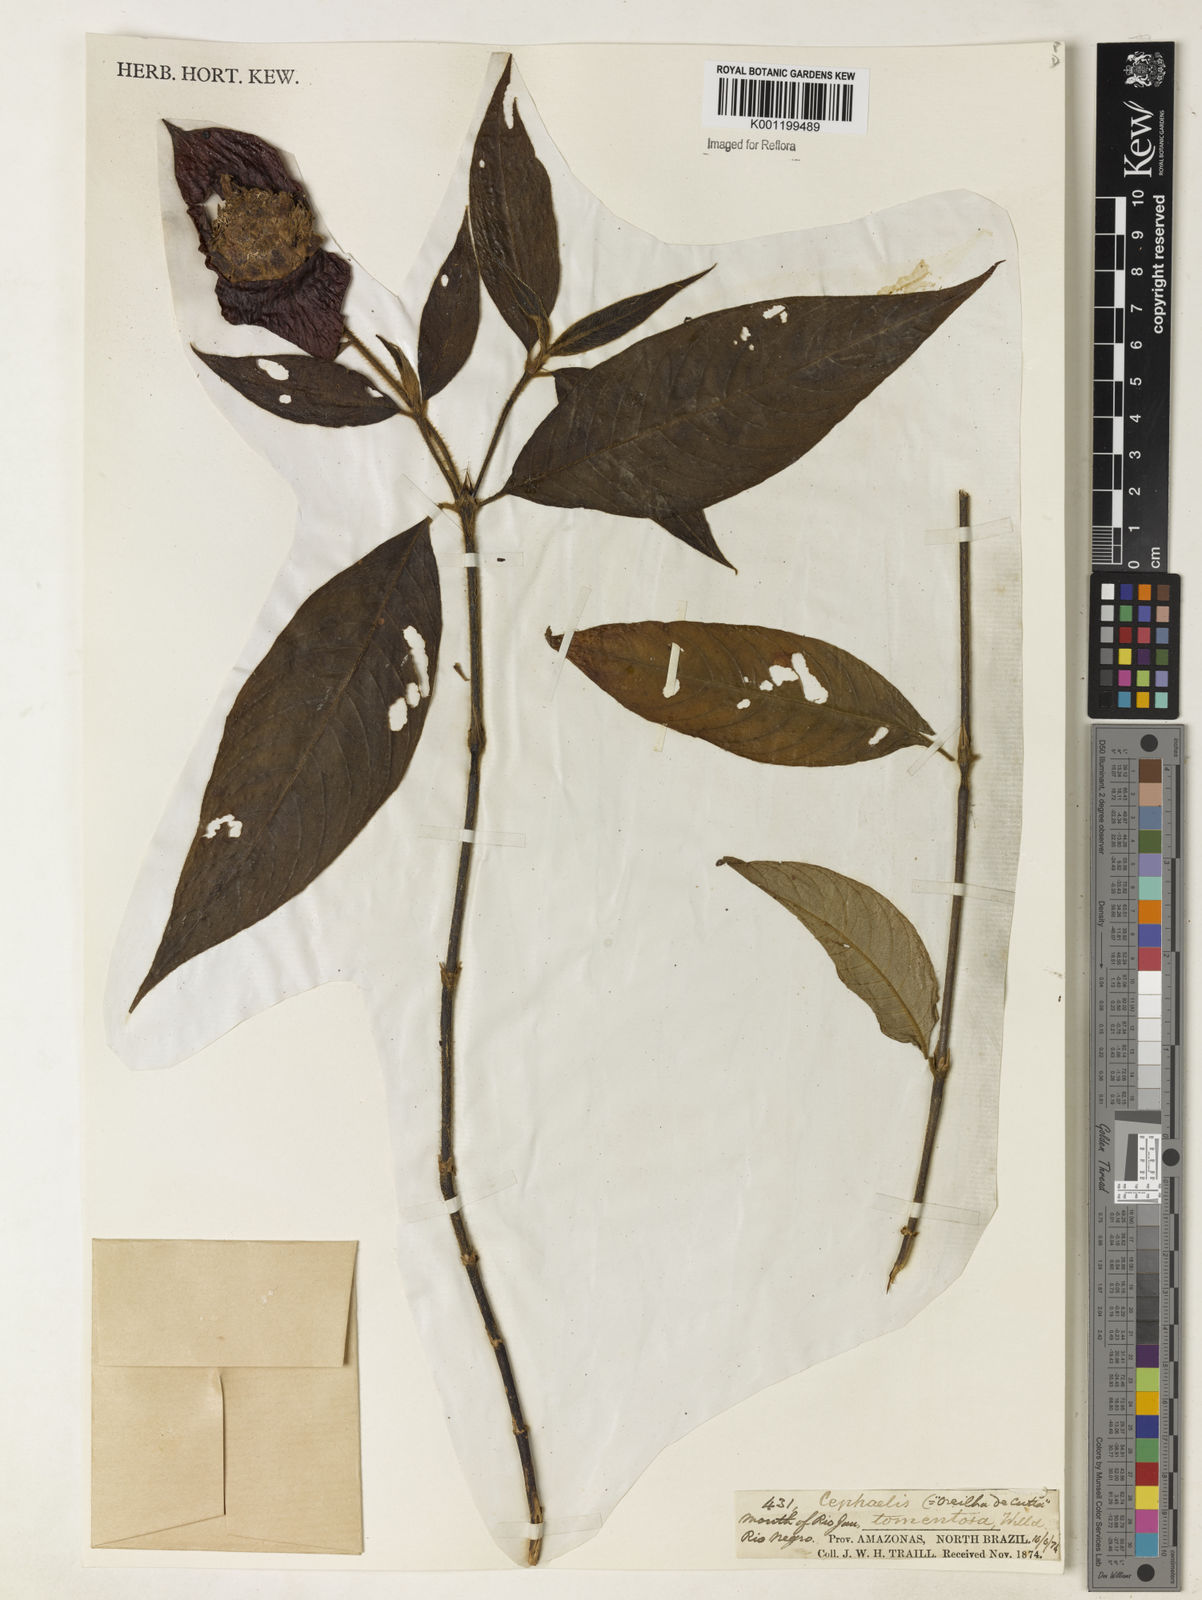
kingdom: Plantae
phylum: Tracheophyta
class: Magnoliopsida
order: Gentianales
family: Rubiaceae
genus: Psychotria
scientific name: Psychotria
